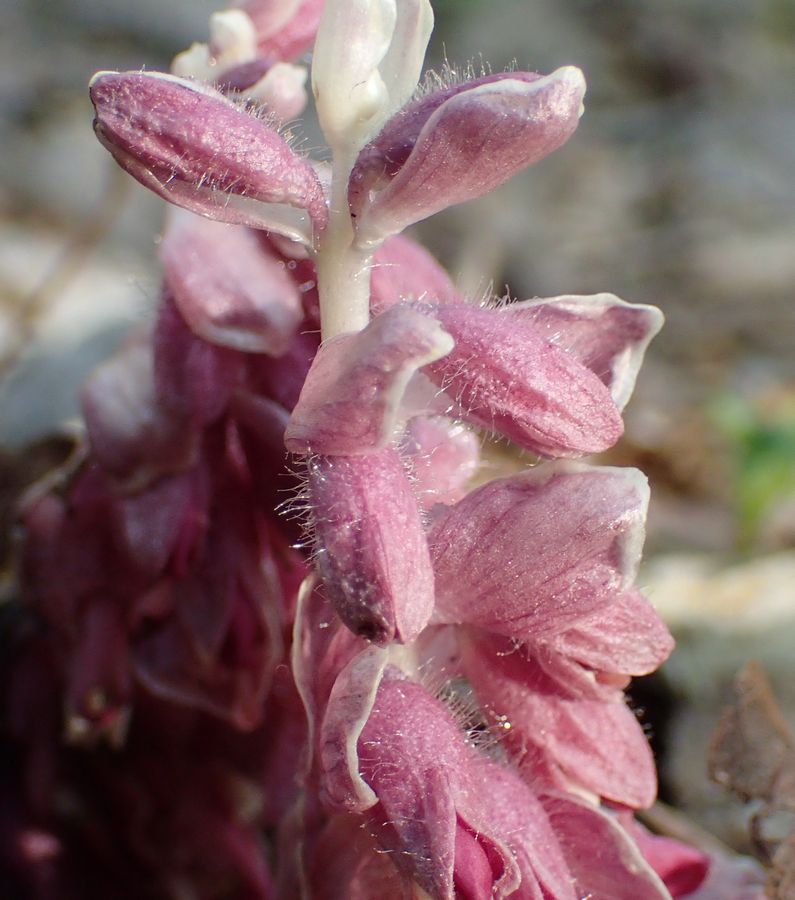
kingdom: Plantae
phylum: Tracheophyta
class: Magnoliopsida
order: Lamiales
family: Orobanchaceae
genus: Lathraea
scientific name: Lathraea squamaria
